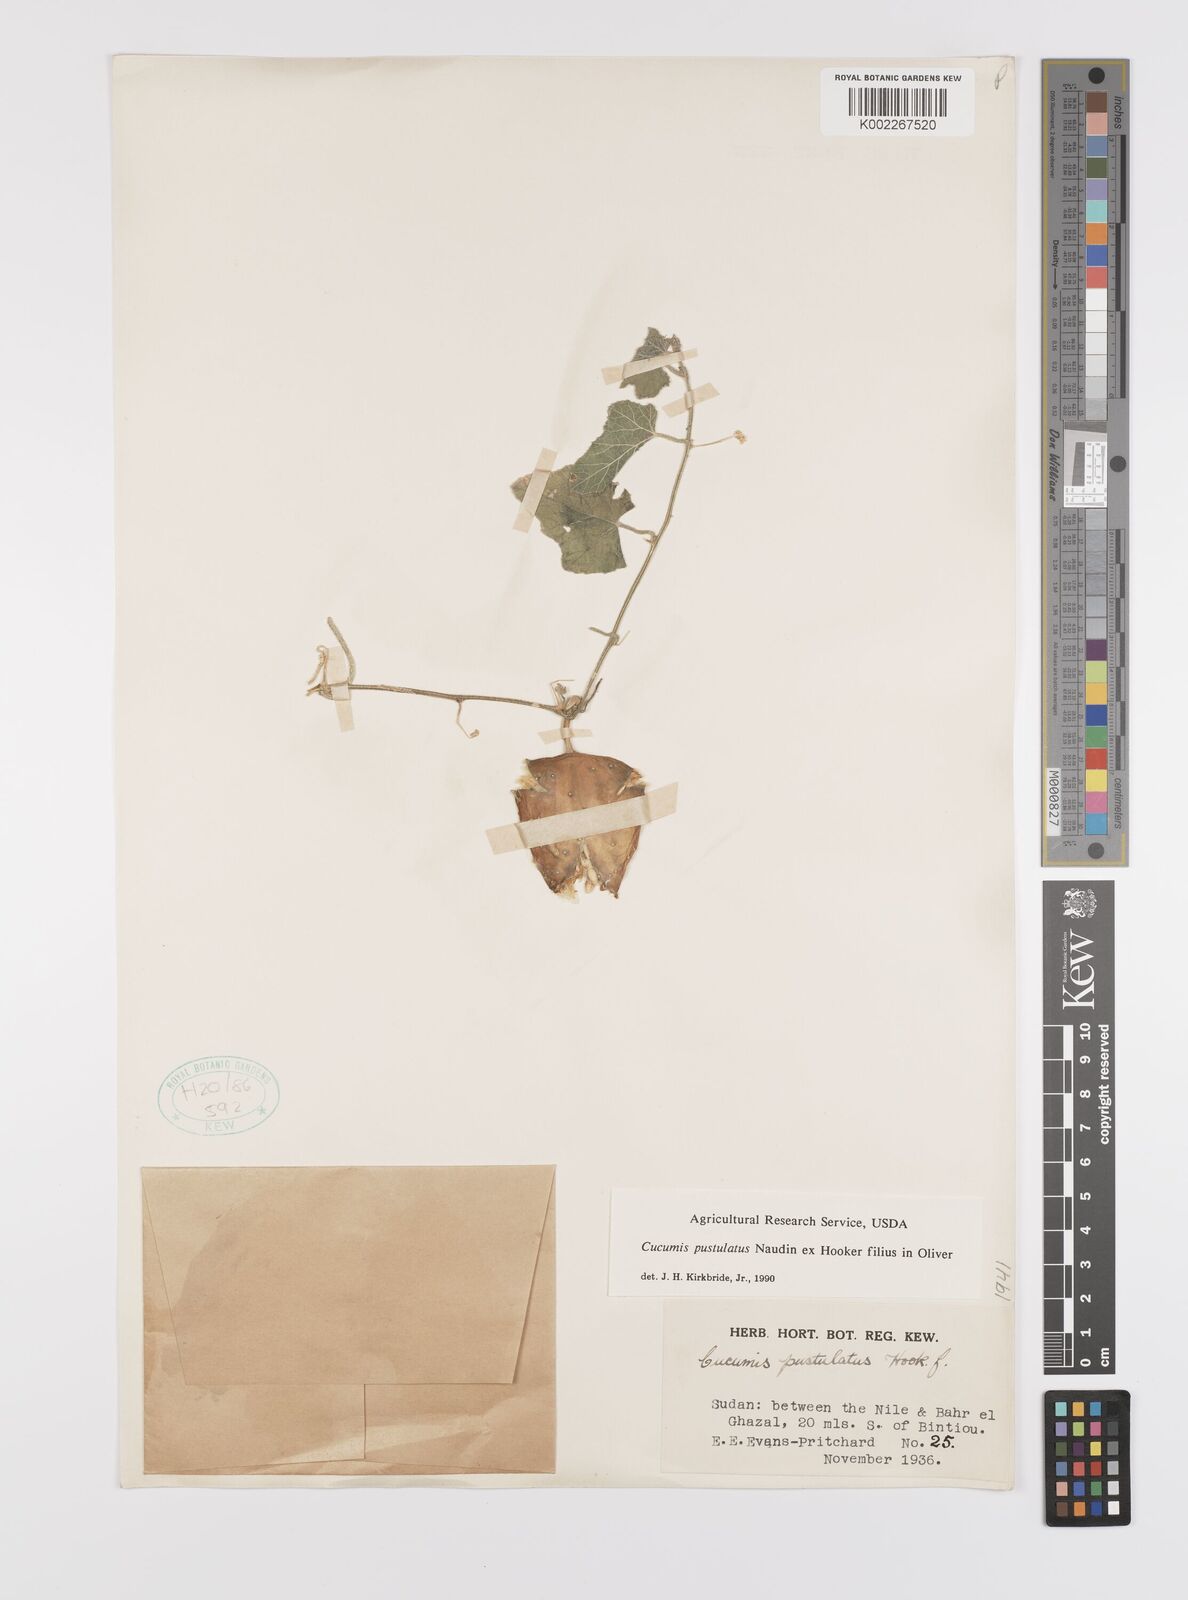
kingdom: Plantae
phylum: Tracheophyta
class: Magnoliopsida
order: Cucurbitales
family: Cucurbitaceae
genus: Cucumis
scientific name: Cucumis pustulatus
